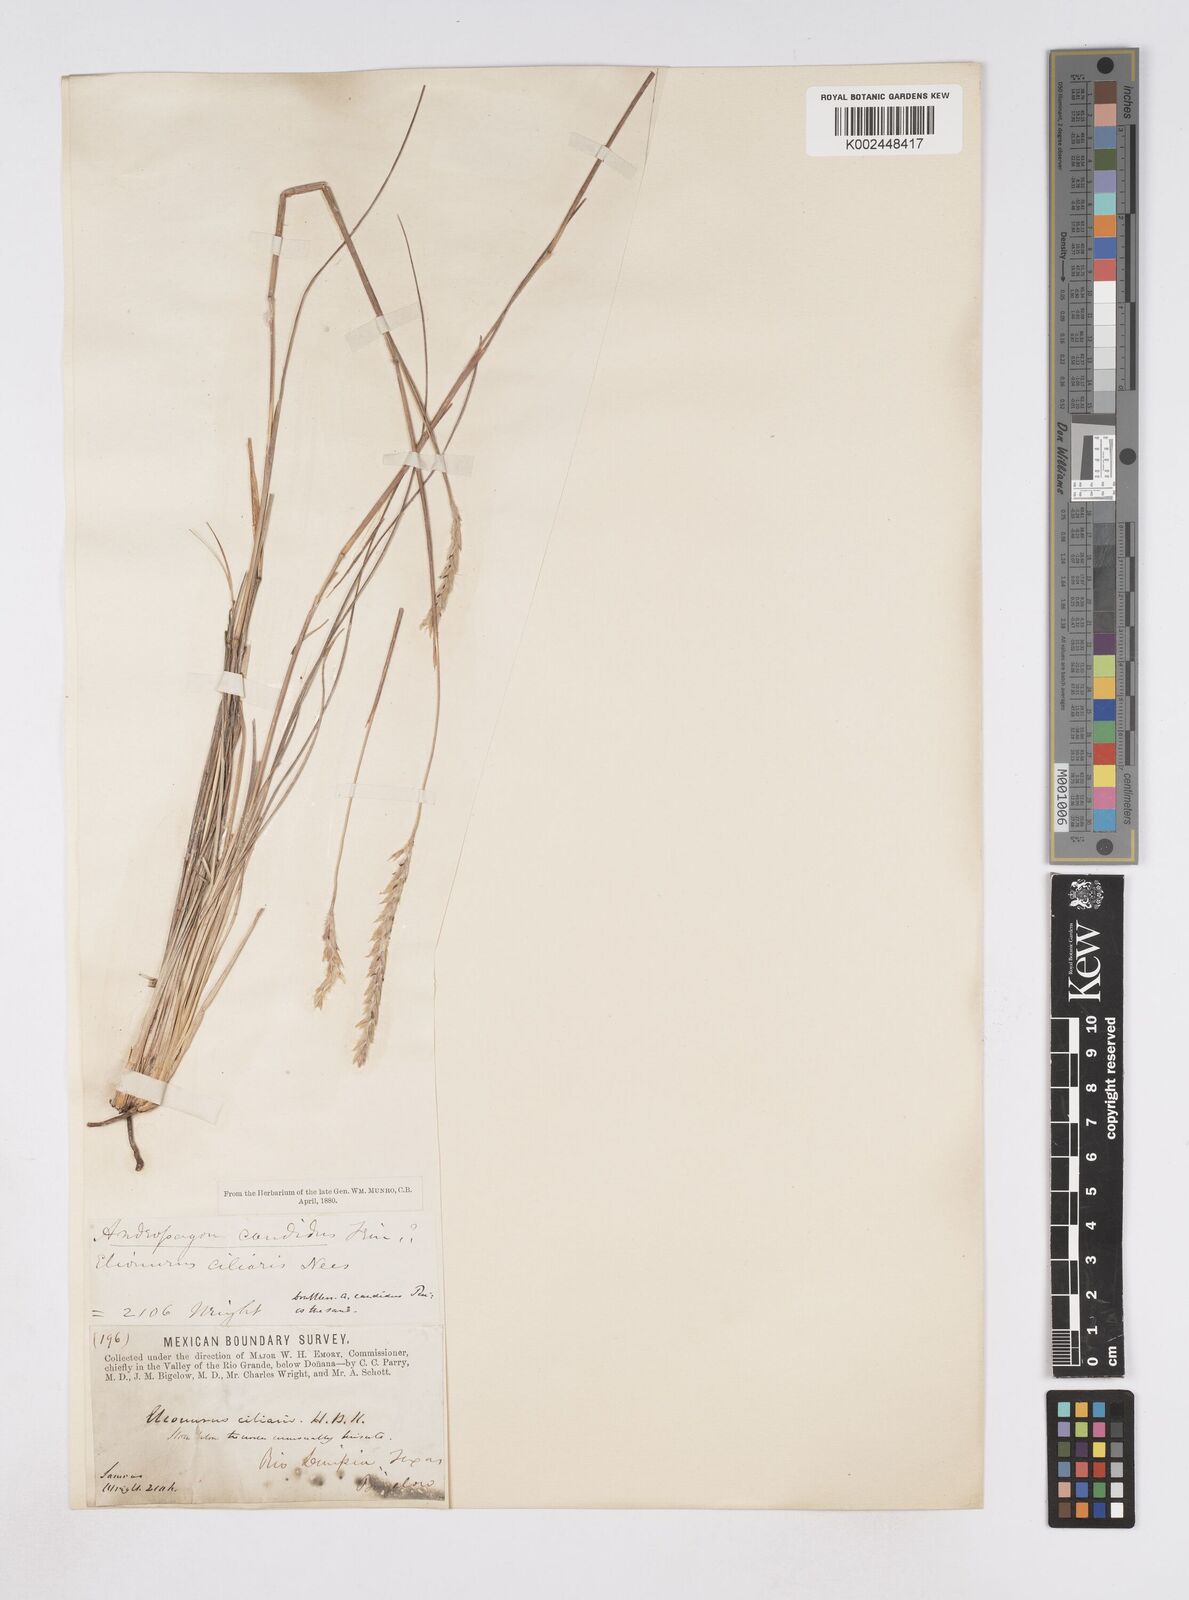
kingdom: Plantae
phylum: Tracheophyta
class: Liliopsida
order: Poales
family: Poaceae
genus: Elionurus
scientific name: Elionurus barbiculmis
